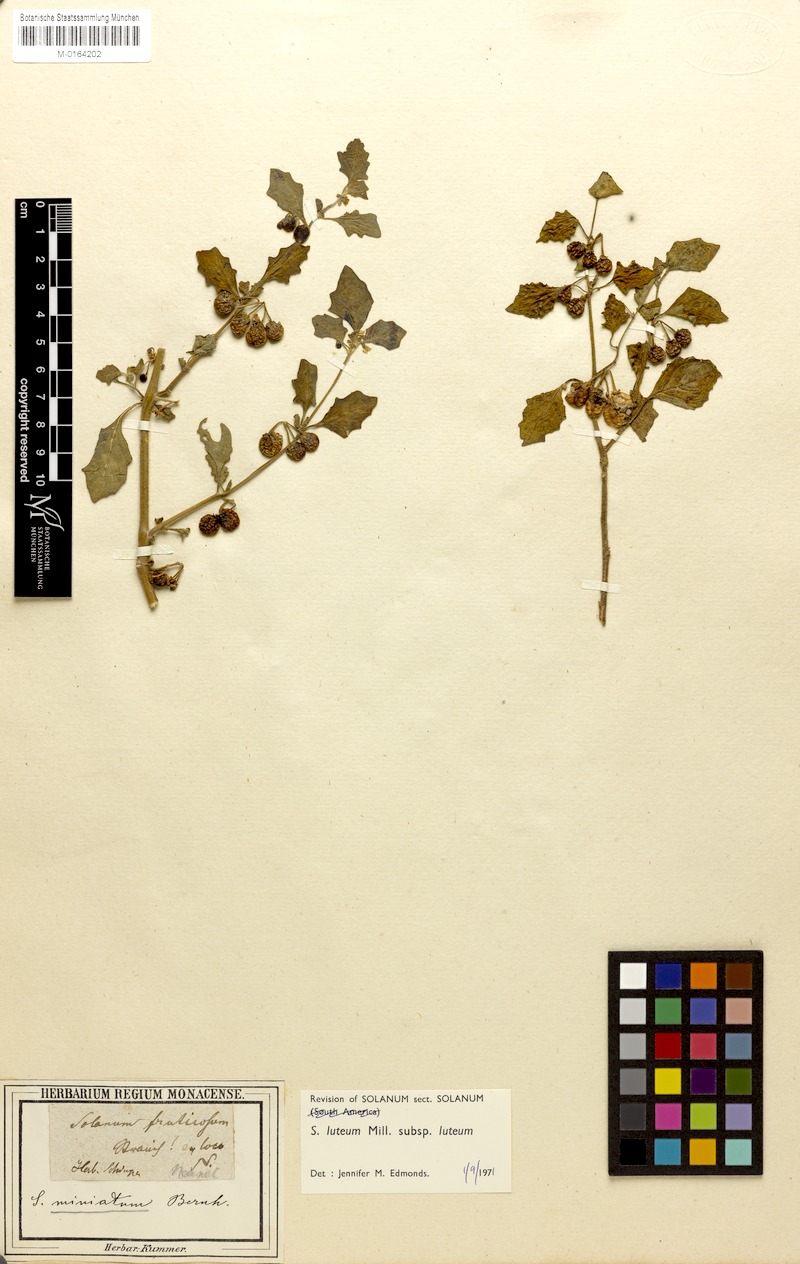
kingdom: Plantae
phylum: Tracheophyta
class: Magnoliopsida
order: Solanales
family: Solanaceae
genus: Solanum
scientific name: Solanum villosum
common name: Red nightshade
